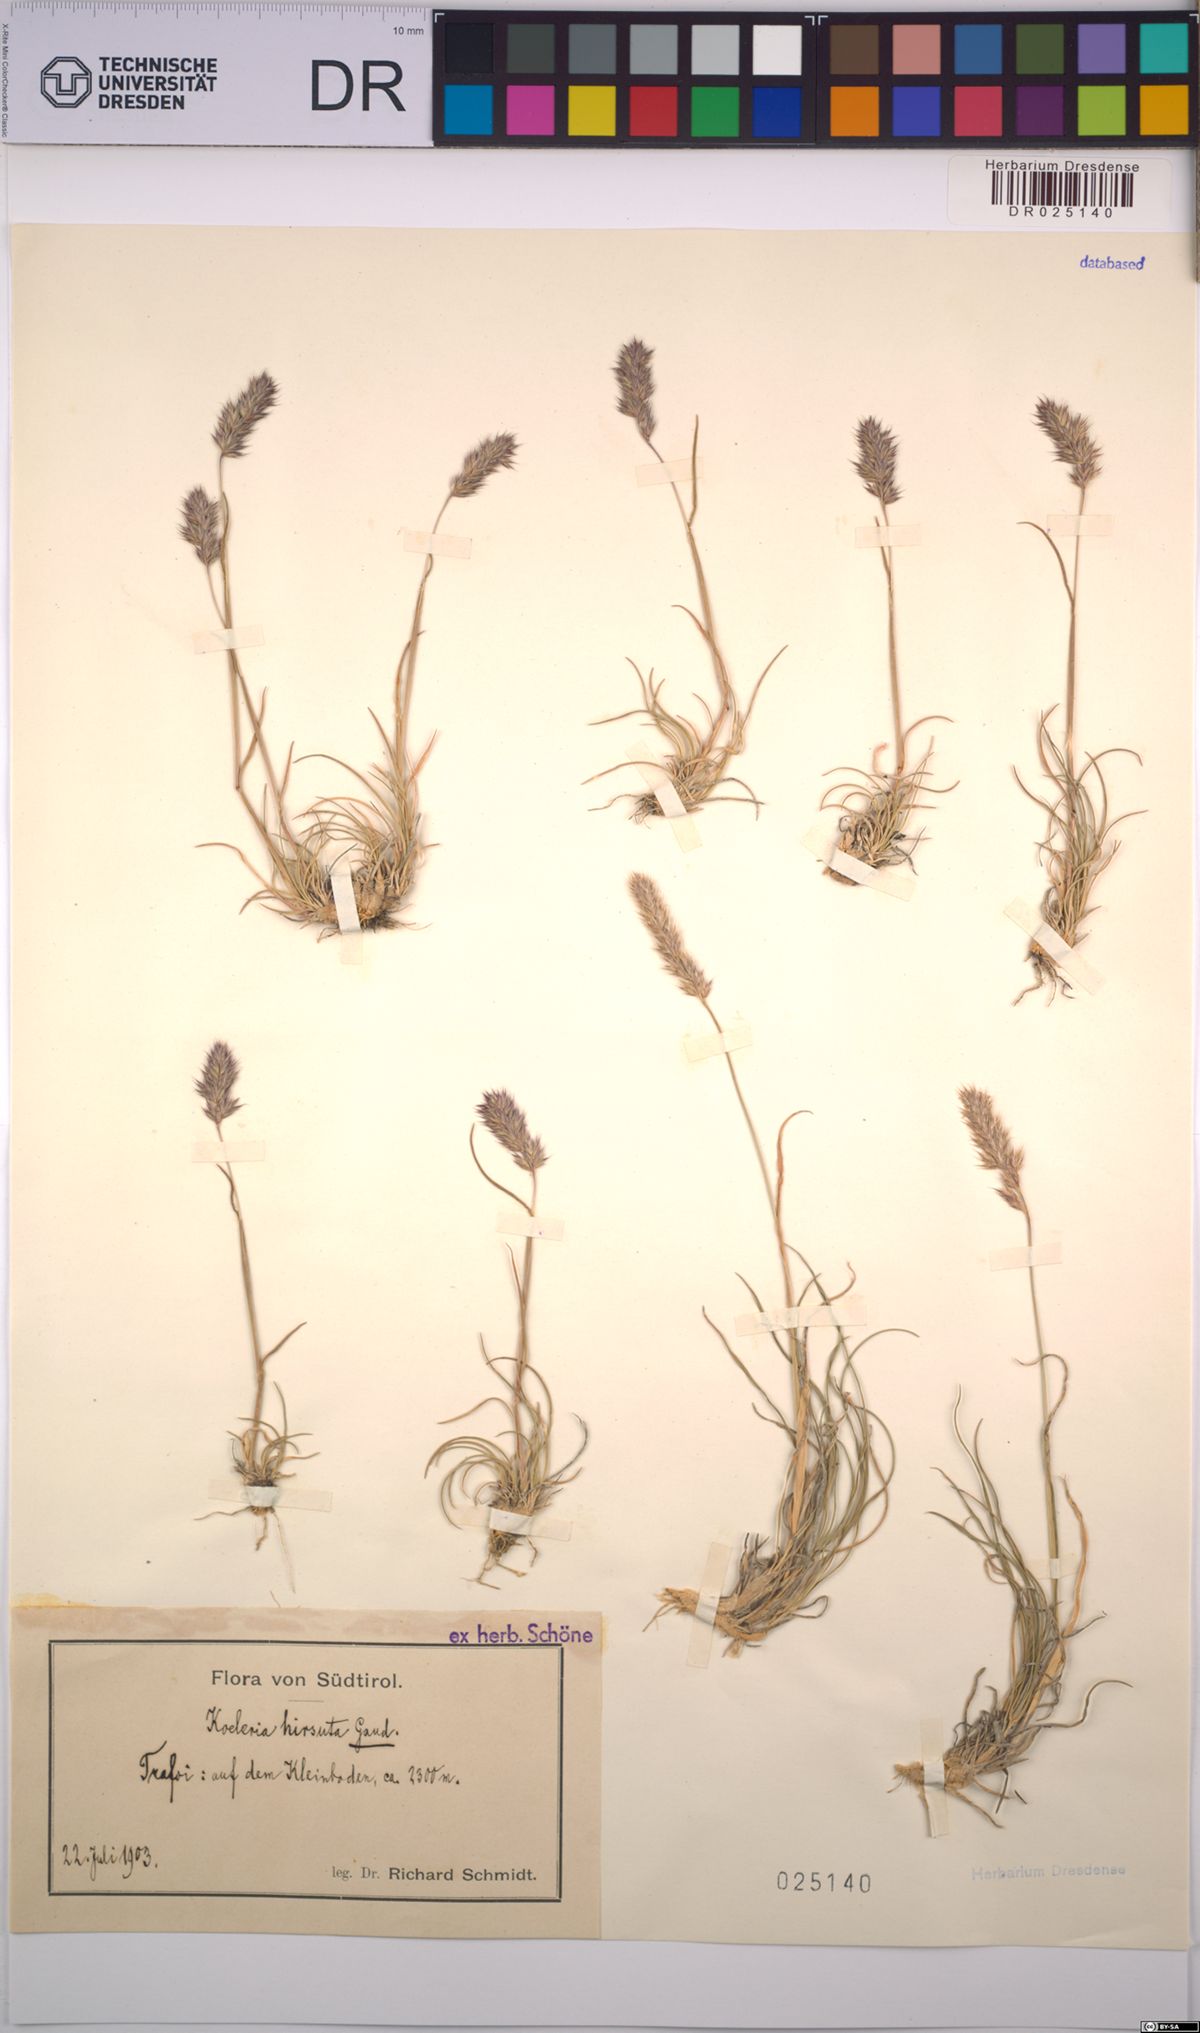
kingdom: Plantae
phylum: Tracheophyta
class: Liliopsida
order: Poales
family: Poaceae
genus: Koeleria
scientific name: Koeleria hirsuta
